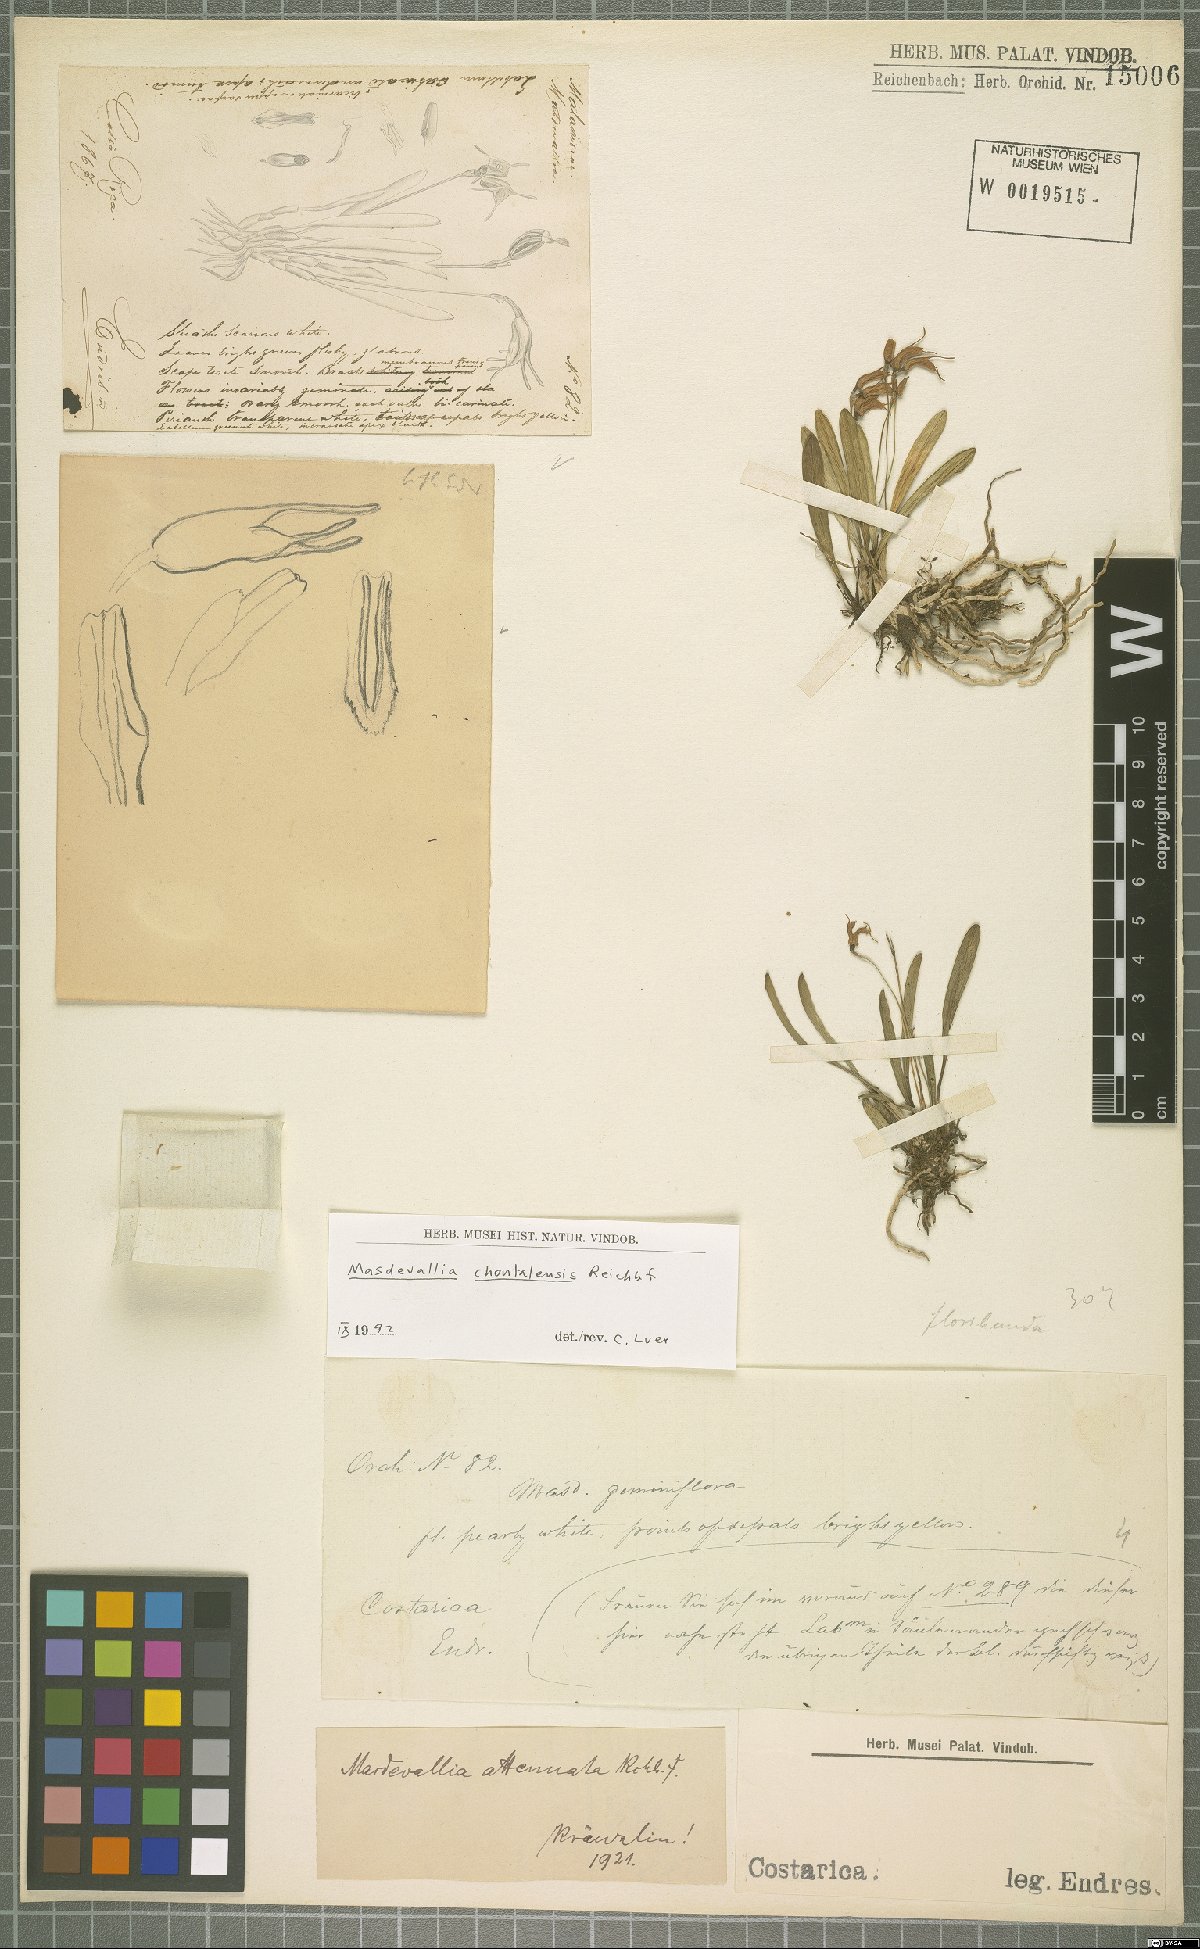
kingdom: Plantae
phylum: Tracheophyta
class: Liliopsida
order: Asparagales
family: Orchidaceae
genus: Masdevallia
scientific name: Masdevallia chontalensis
